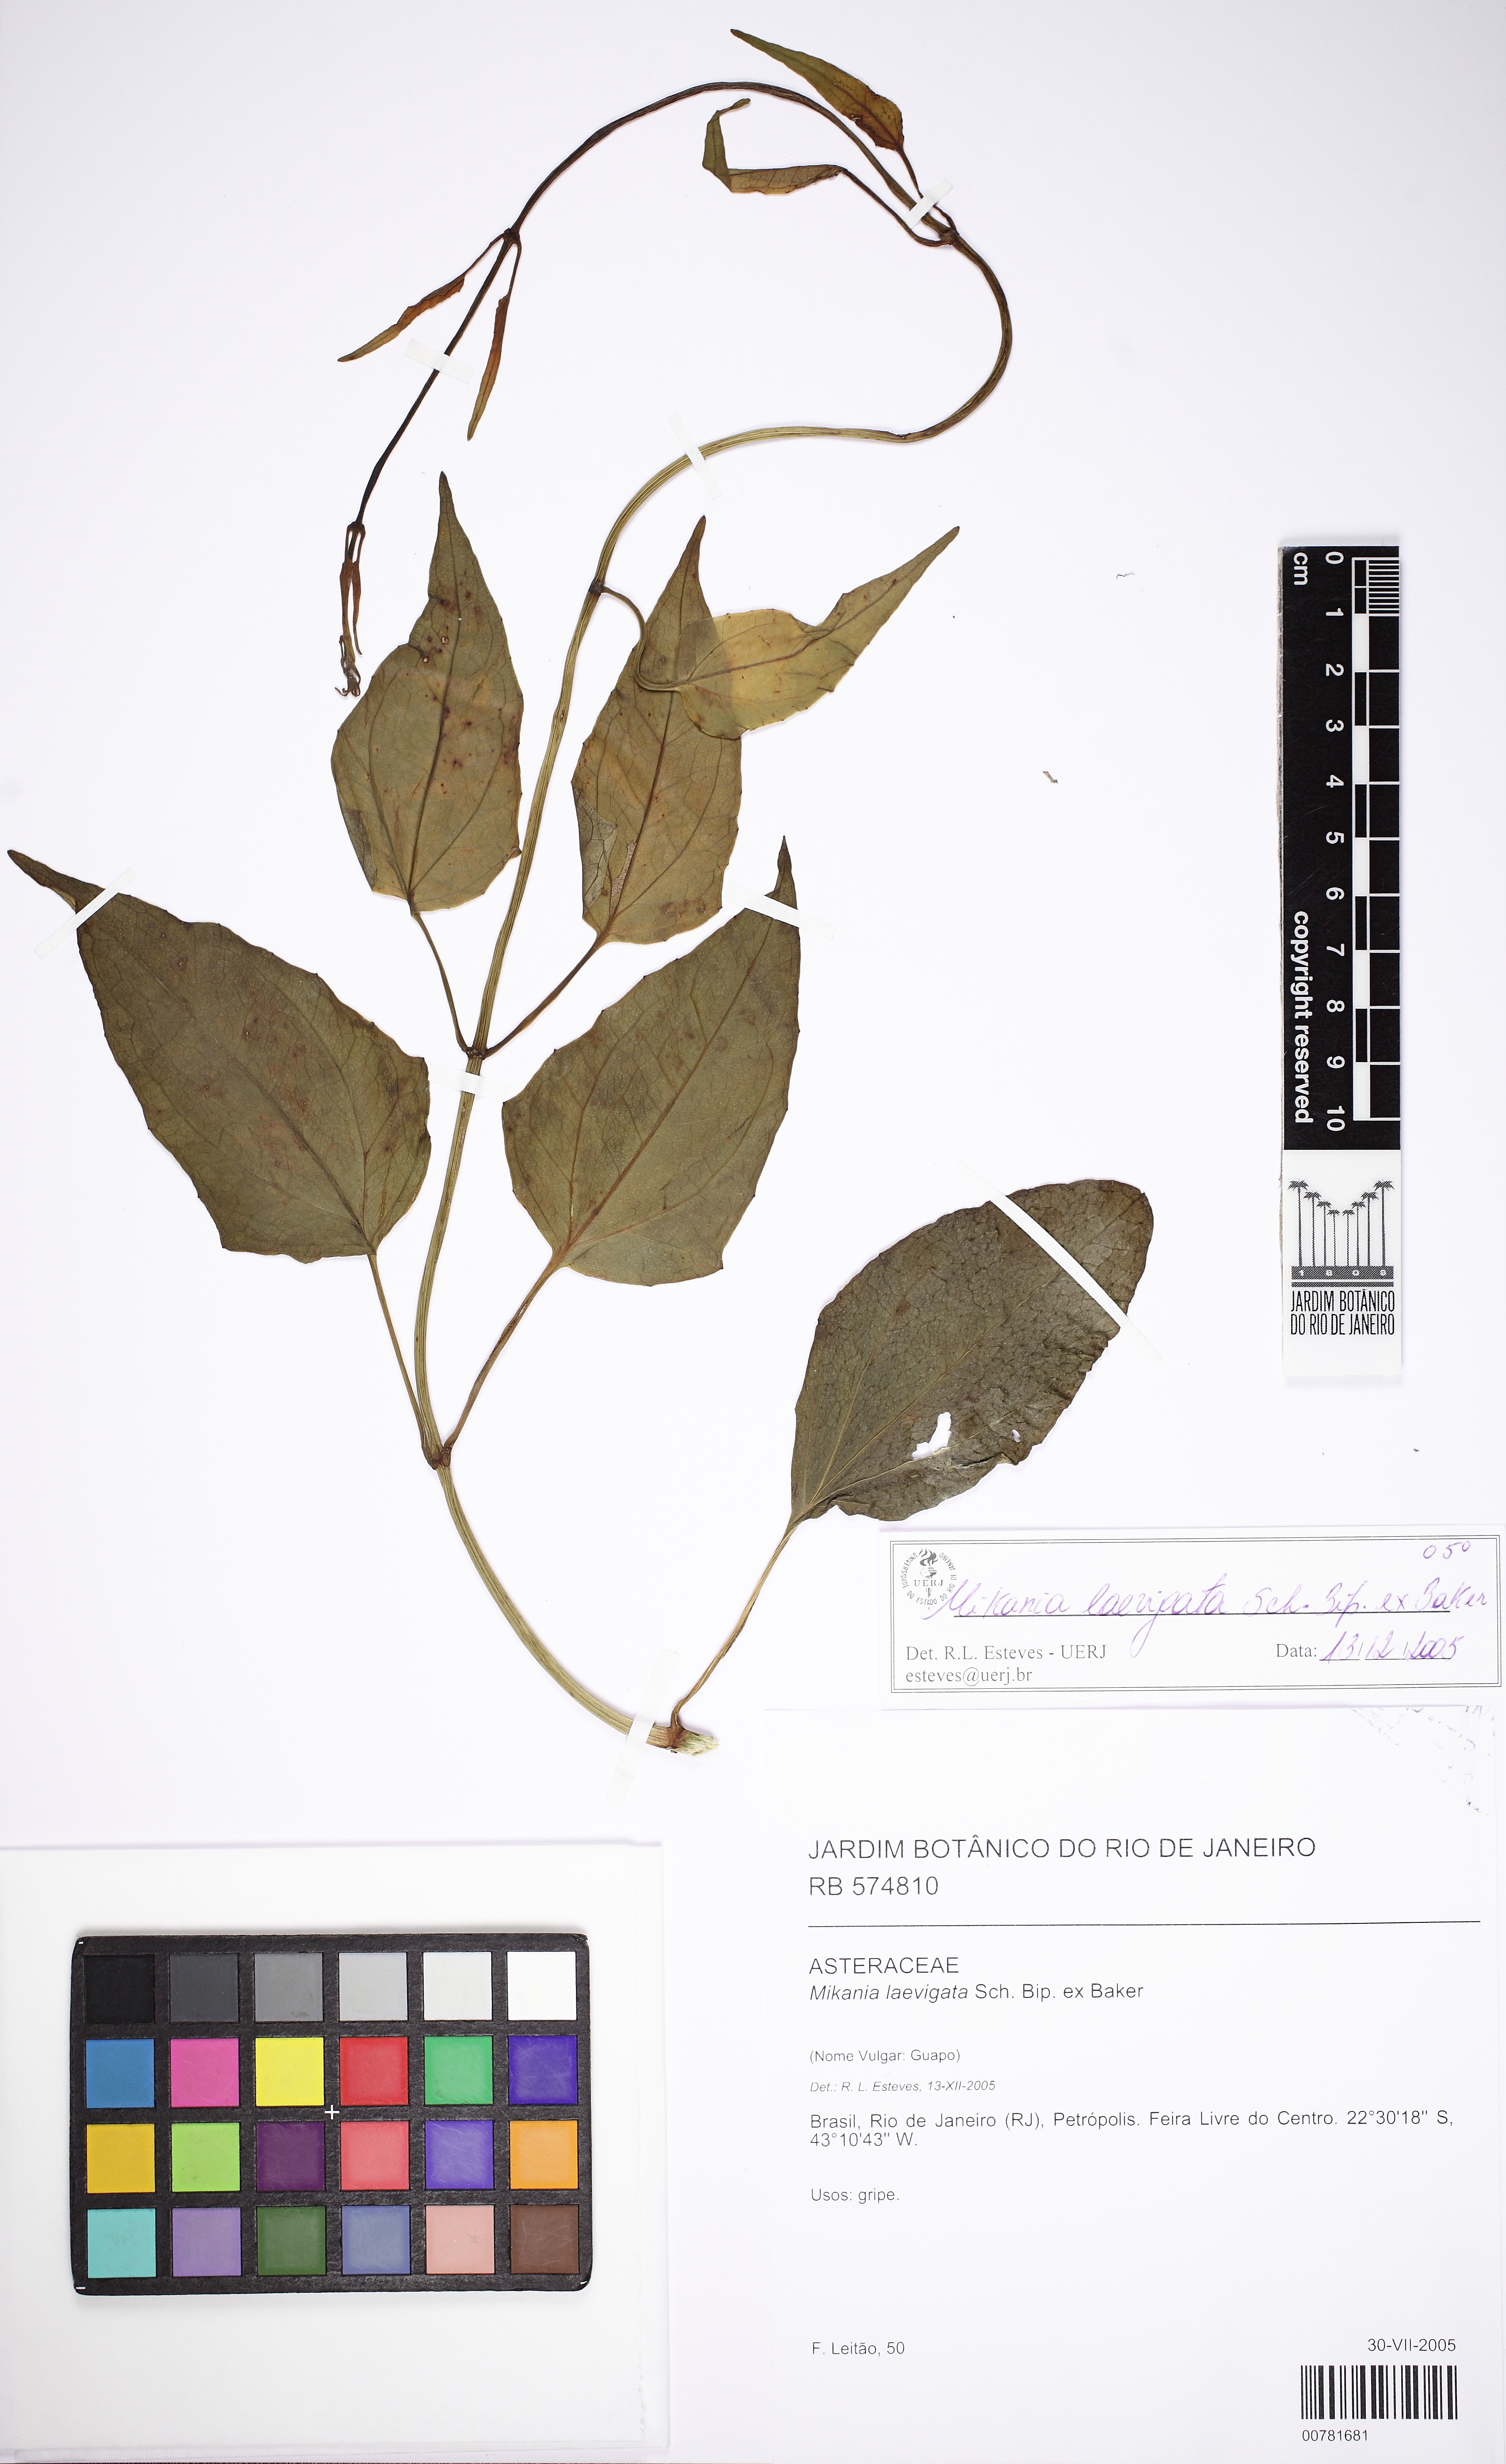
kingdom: Plantae
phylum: Tracheophyta
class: Magnoliopsida
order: Asterales
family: Asteraceae
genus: Mikania
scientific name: Mikania laevigata
